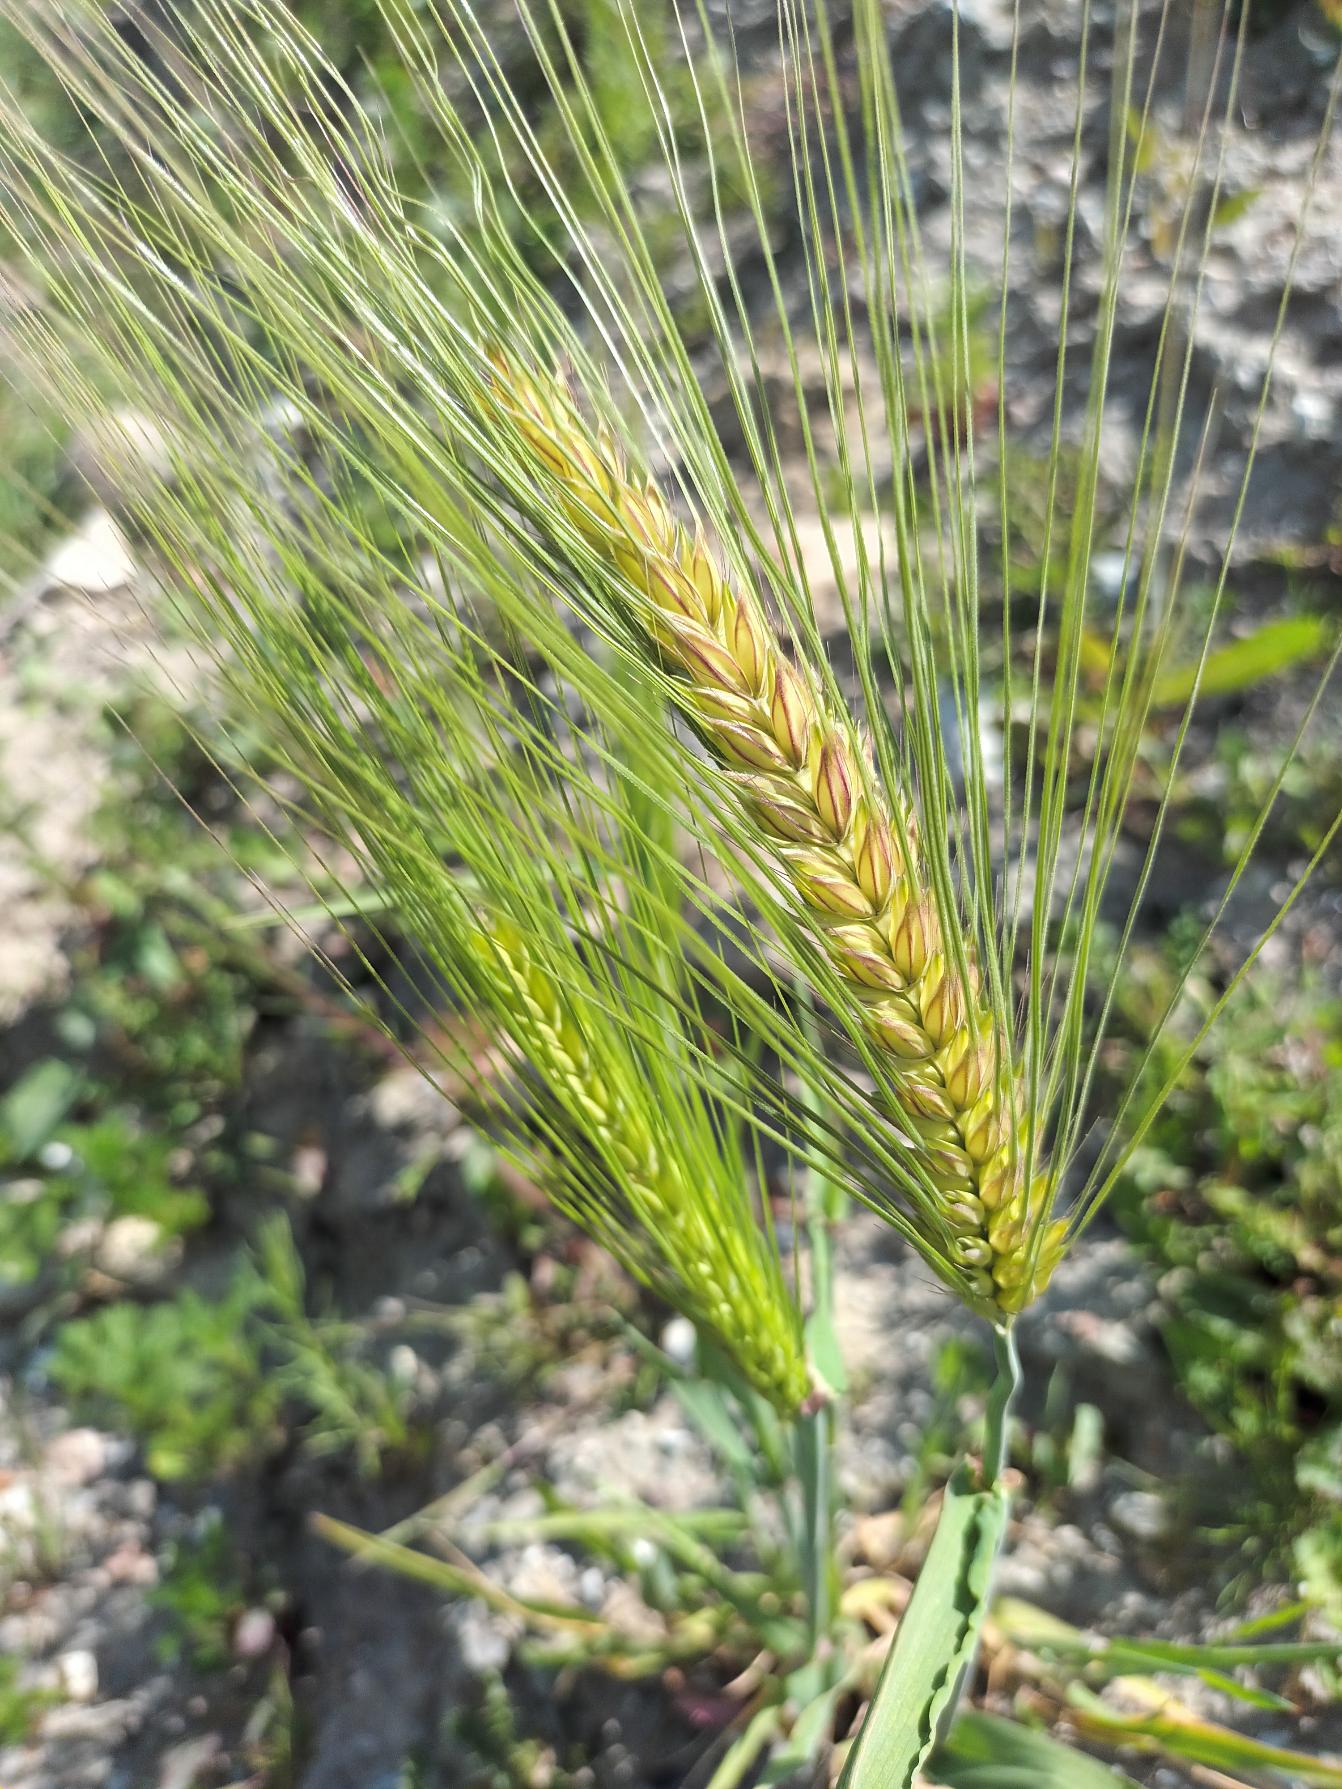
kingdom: Plantae
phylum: Tracheophyta
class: Liliopsida
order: Poales
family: Poaceae
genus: Hordeum
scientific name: Hordeum vulgare
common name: Seksradet byg
